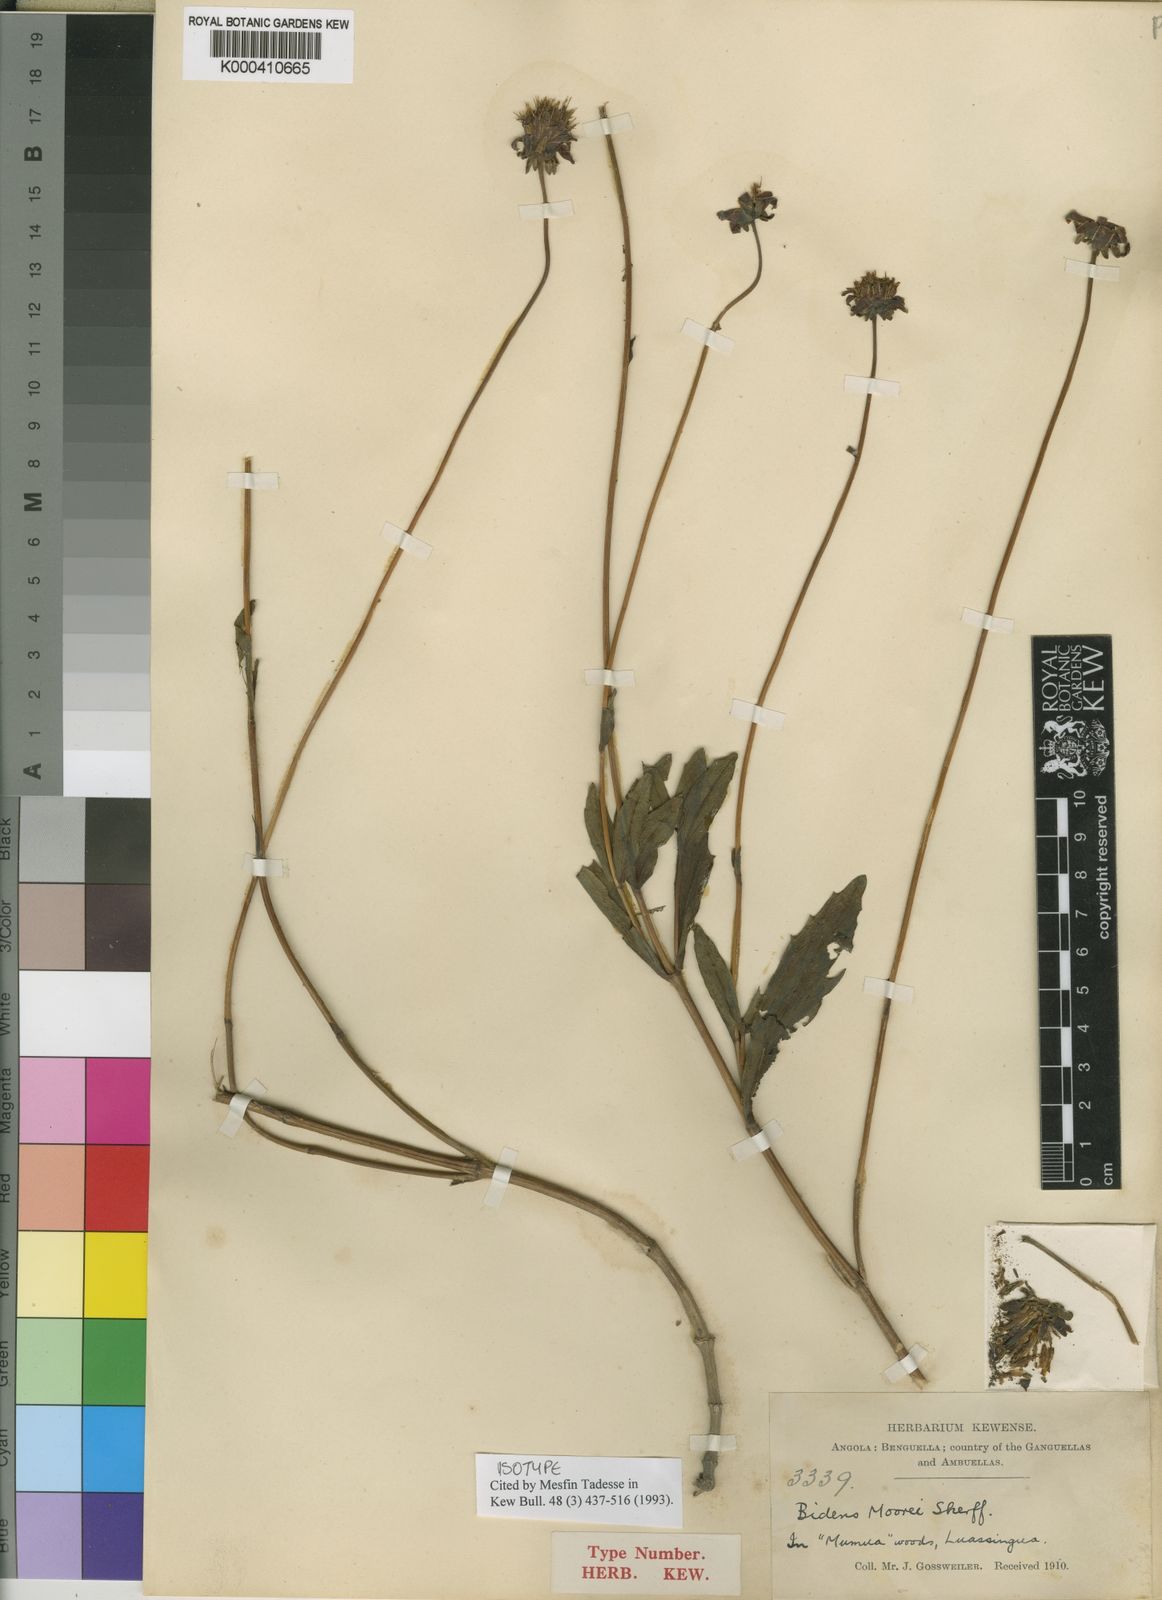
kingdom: Plantae
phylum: Tracheophyta
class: Magnoliopsida
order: Asterales
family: Asteraceae
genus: Bidens
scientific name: Bidens moorei
